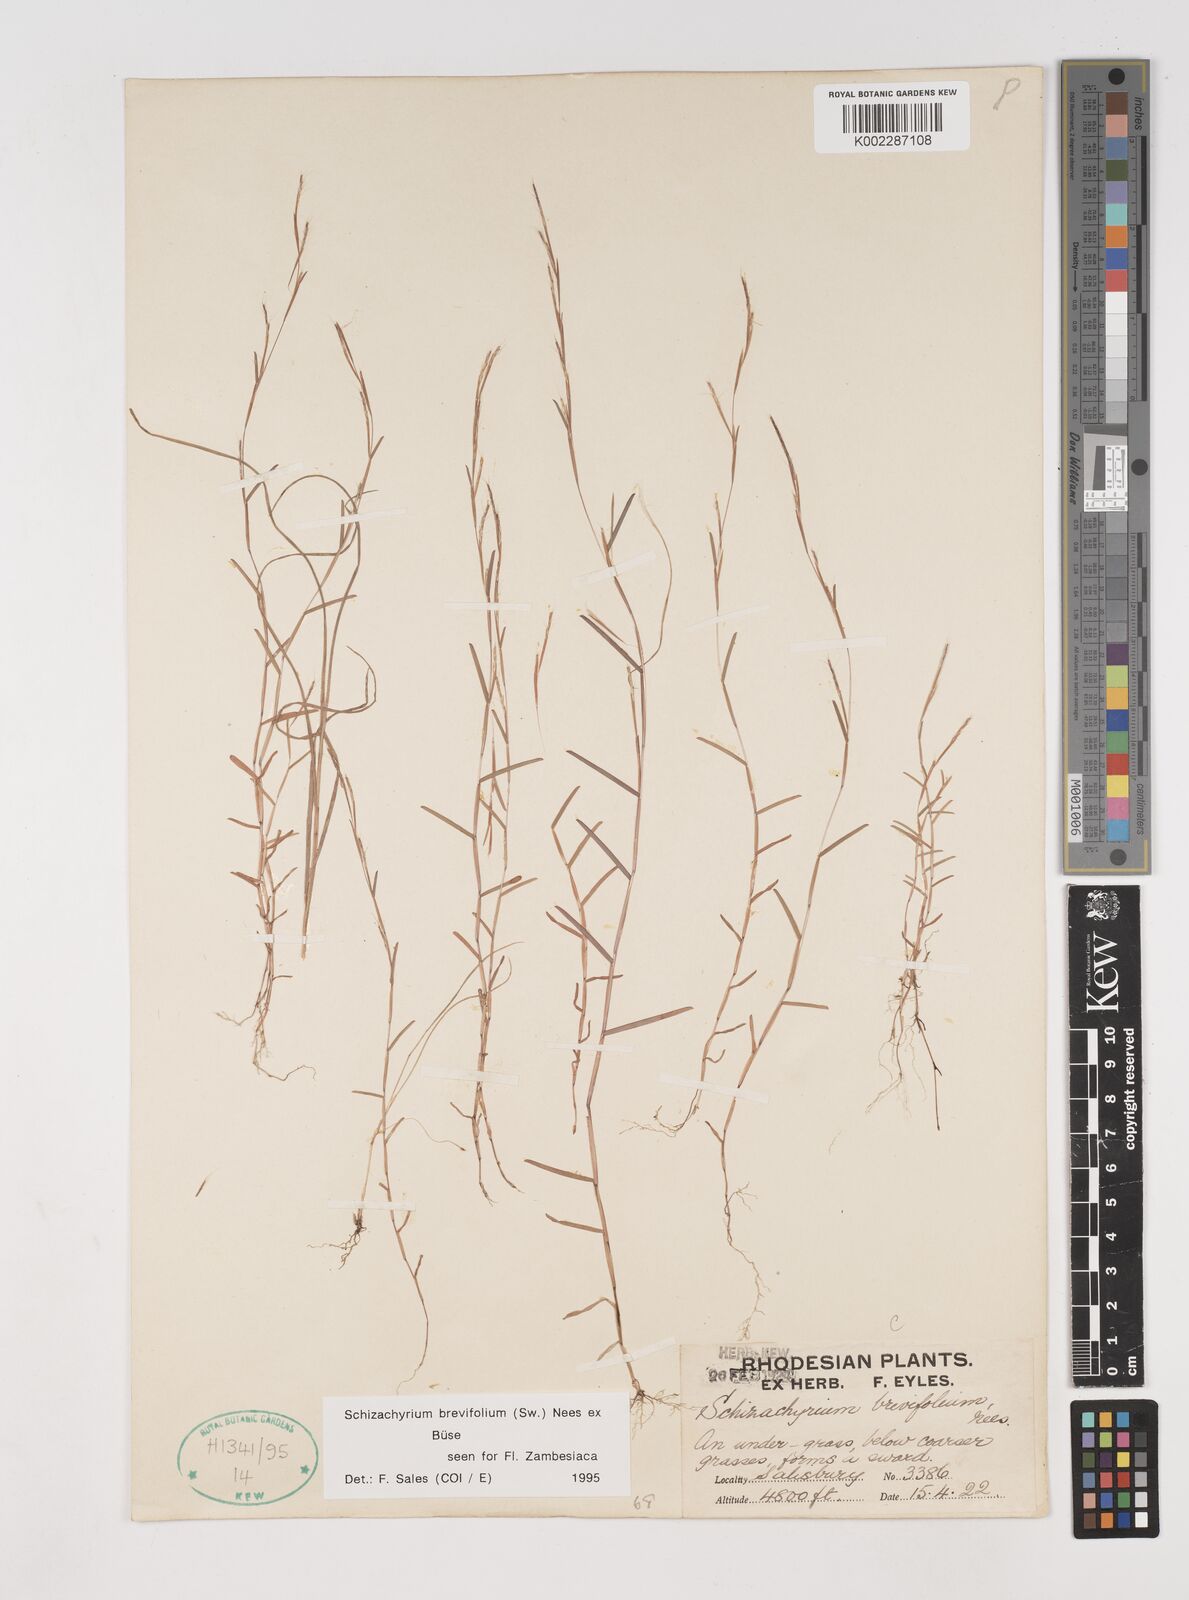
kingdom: Plantae
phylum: Tracheophyta
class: Liliopsida
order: Poales
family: Poaceae
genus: Schizachyrium
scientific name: Schizachyrium brevifolium
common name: Serillo dulce
